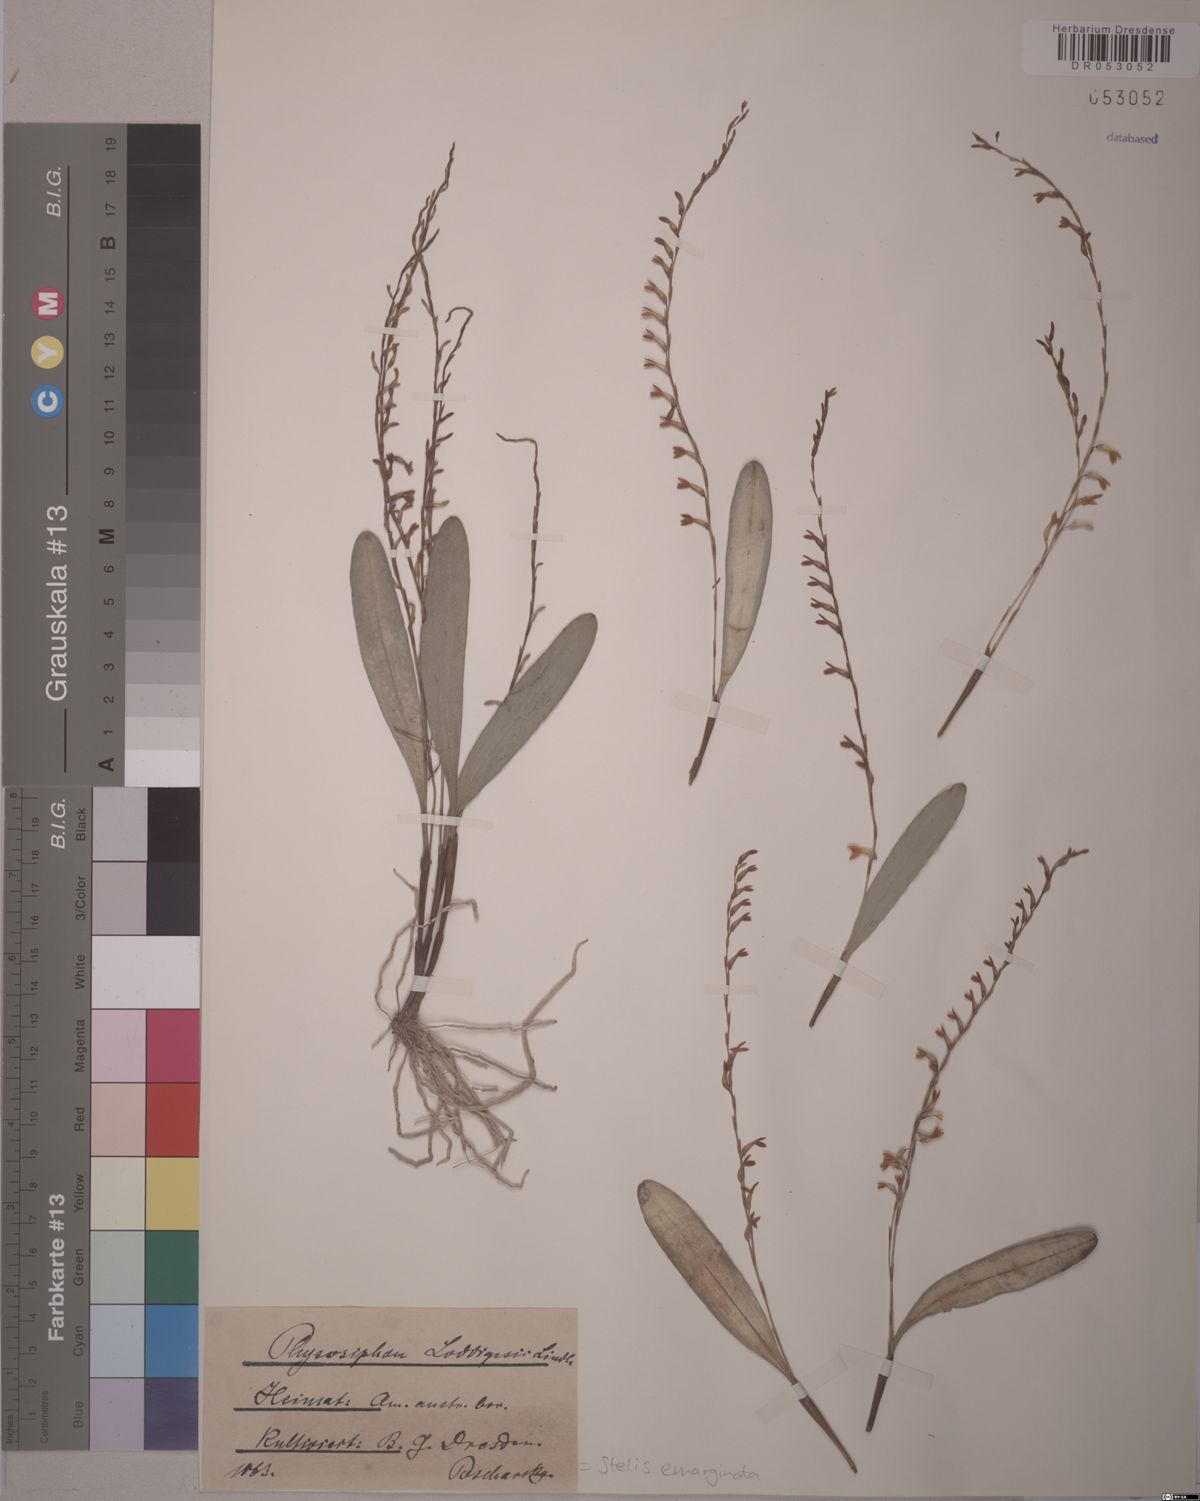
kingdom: Plantae
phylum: Tracheophyta
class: Liliopsida
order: Asparagales
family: Orchidaceae
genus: Stelis
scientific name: Stelis emarginata
